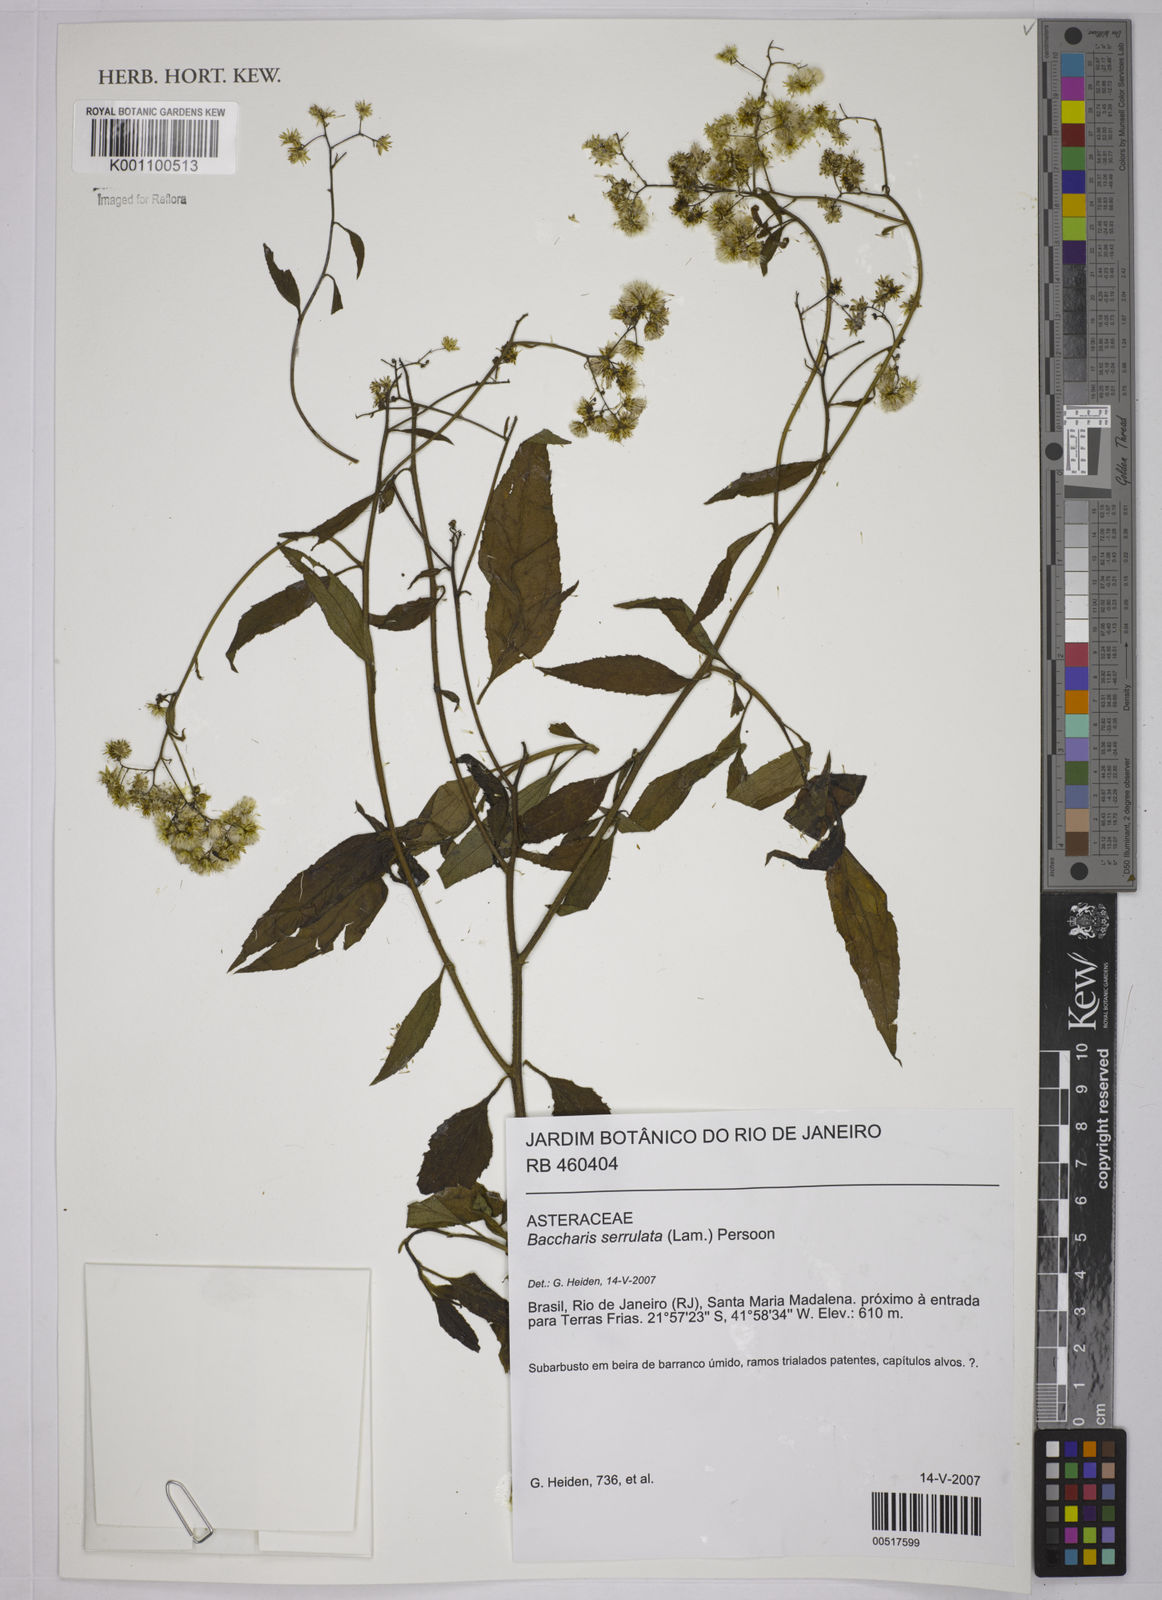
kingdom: Plantae
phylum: Tracheophyta
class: Magnoliopsida
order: Asterales
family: Asteraceae
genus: Baccharis
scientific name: Baccharis serrulata
